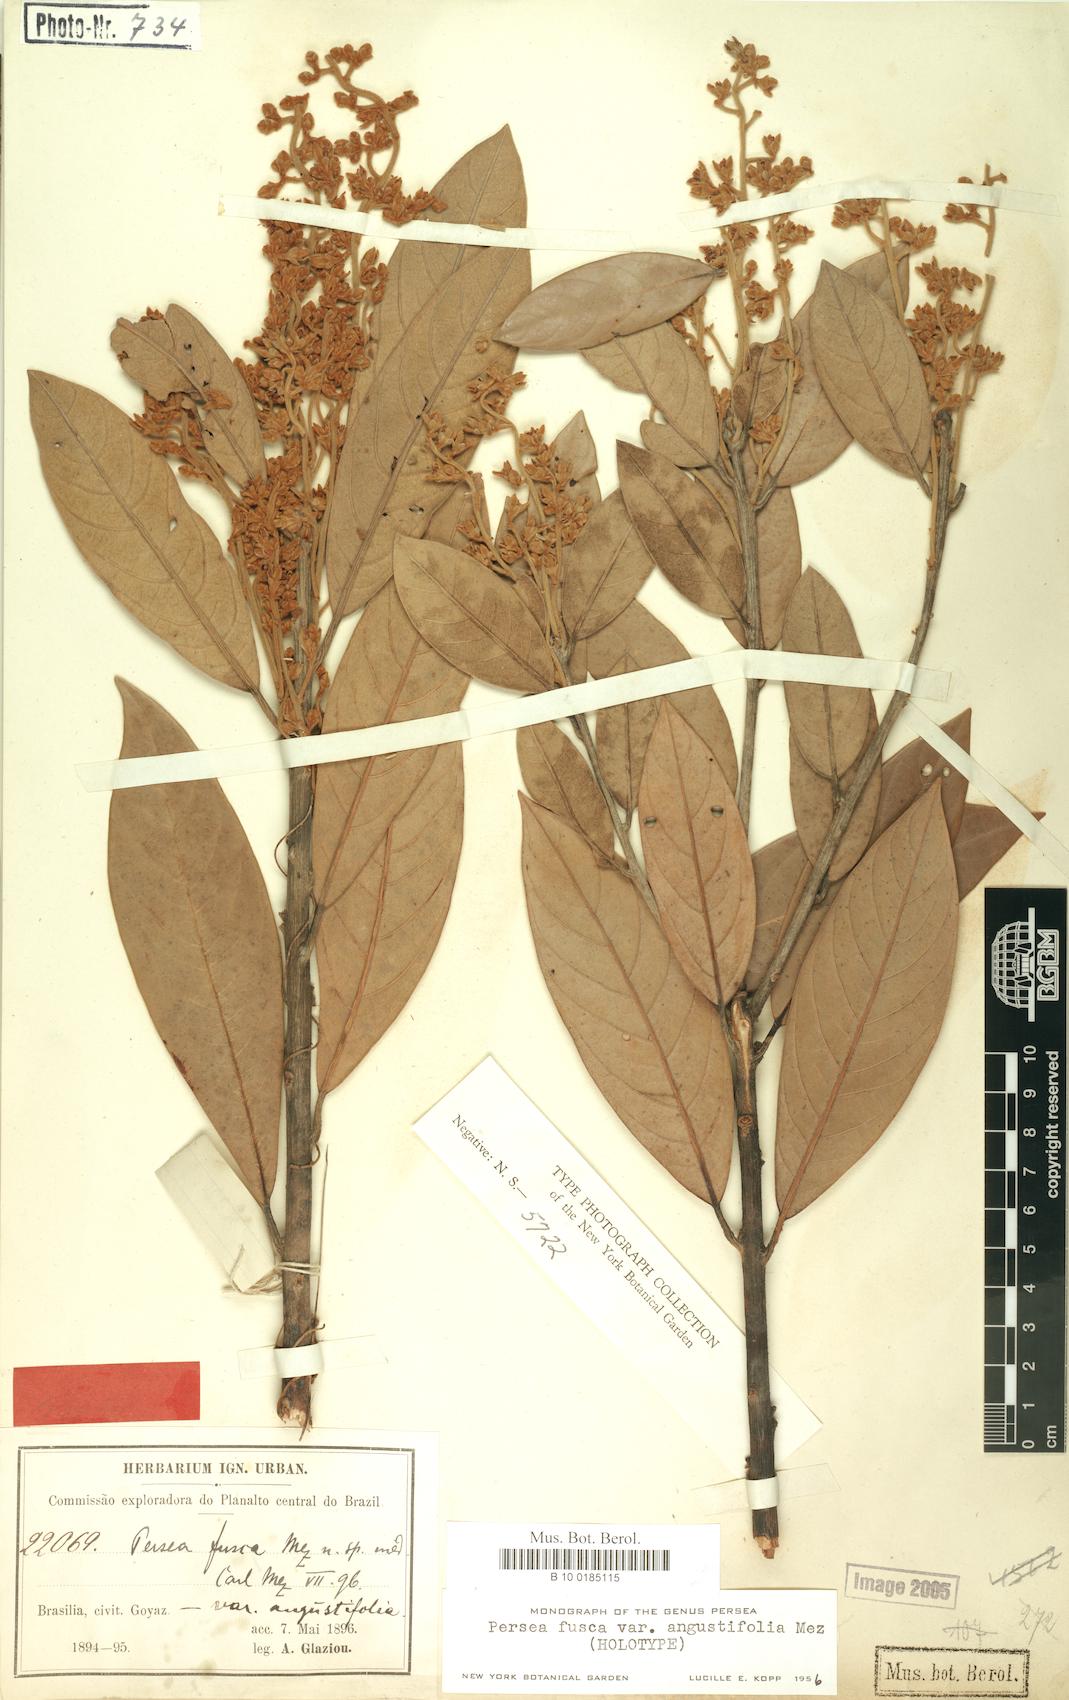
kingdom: Plantae
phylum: Tracheophyta
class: Magnoliopsida
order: Laurales
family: Lauraceae
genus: Persea
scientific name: Persea fusca
